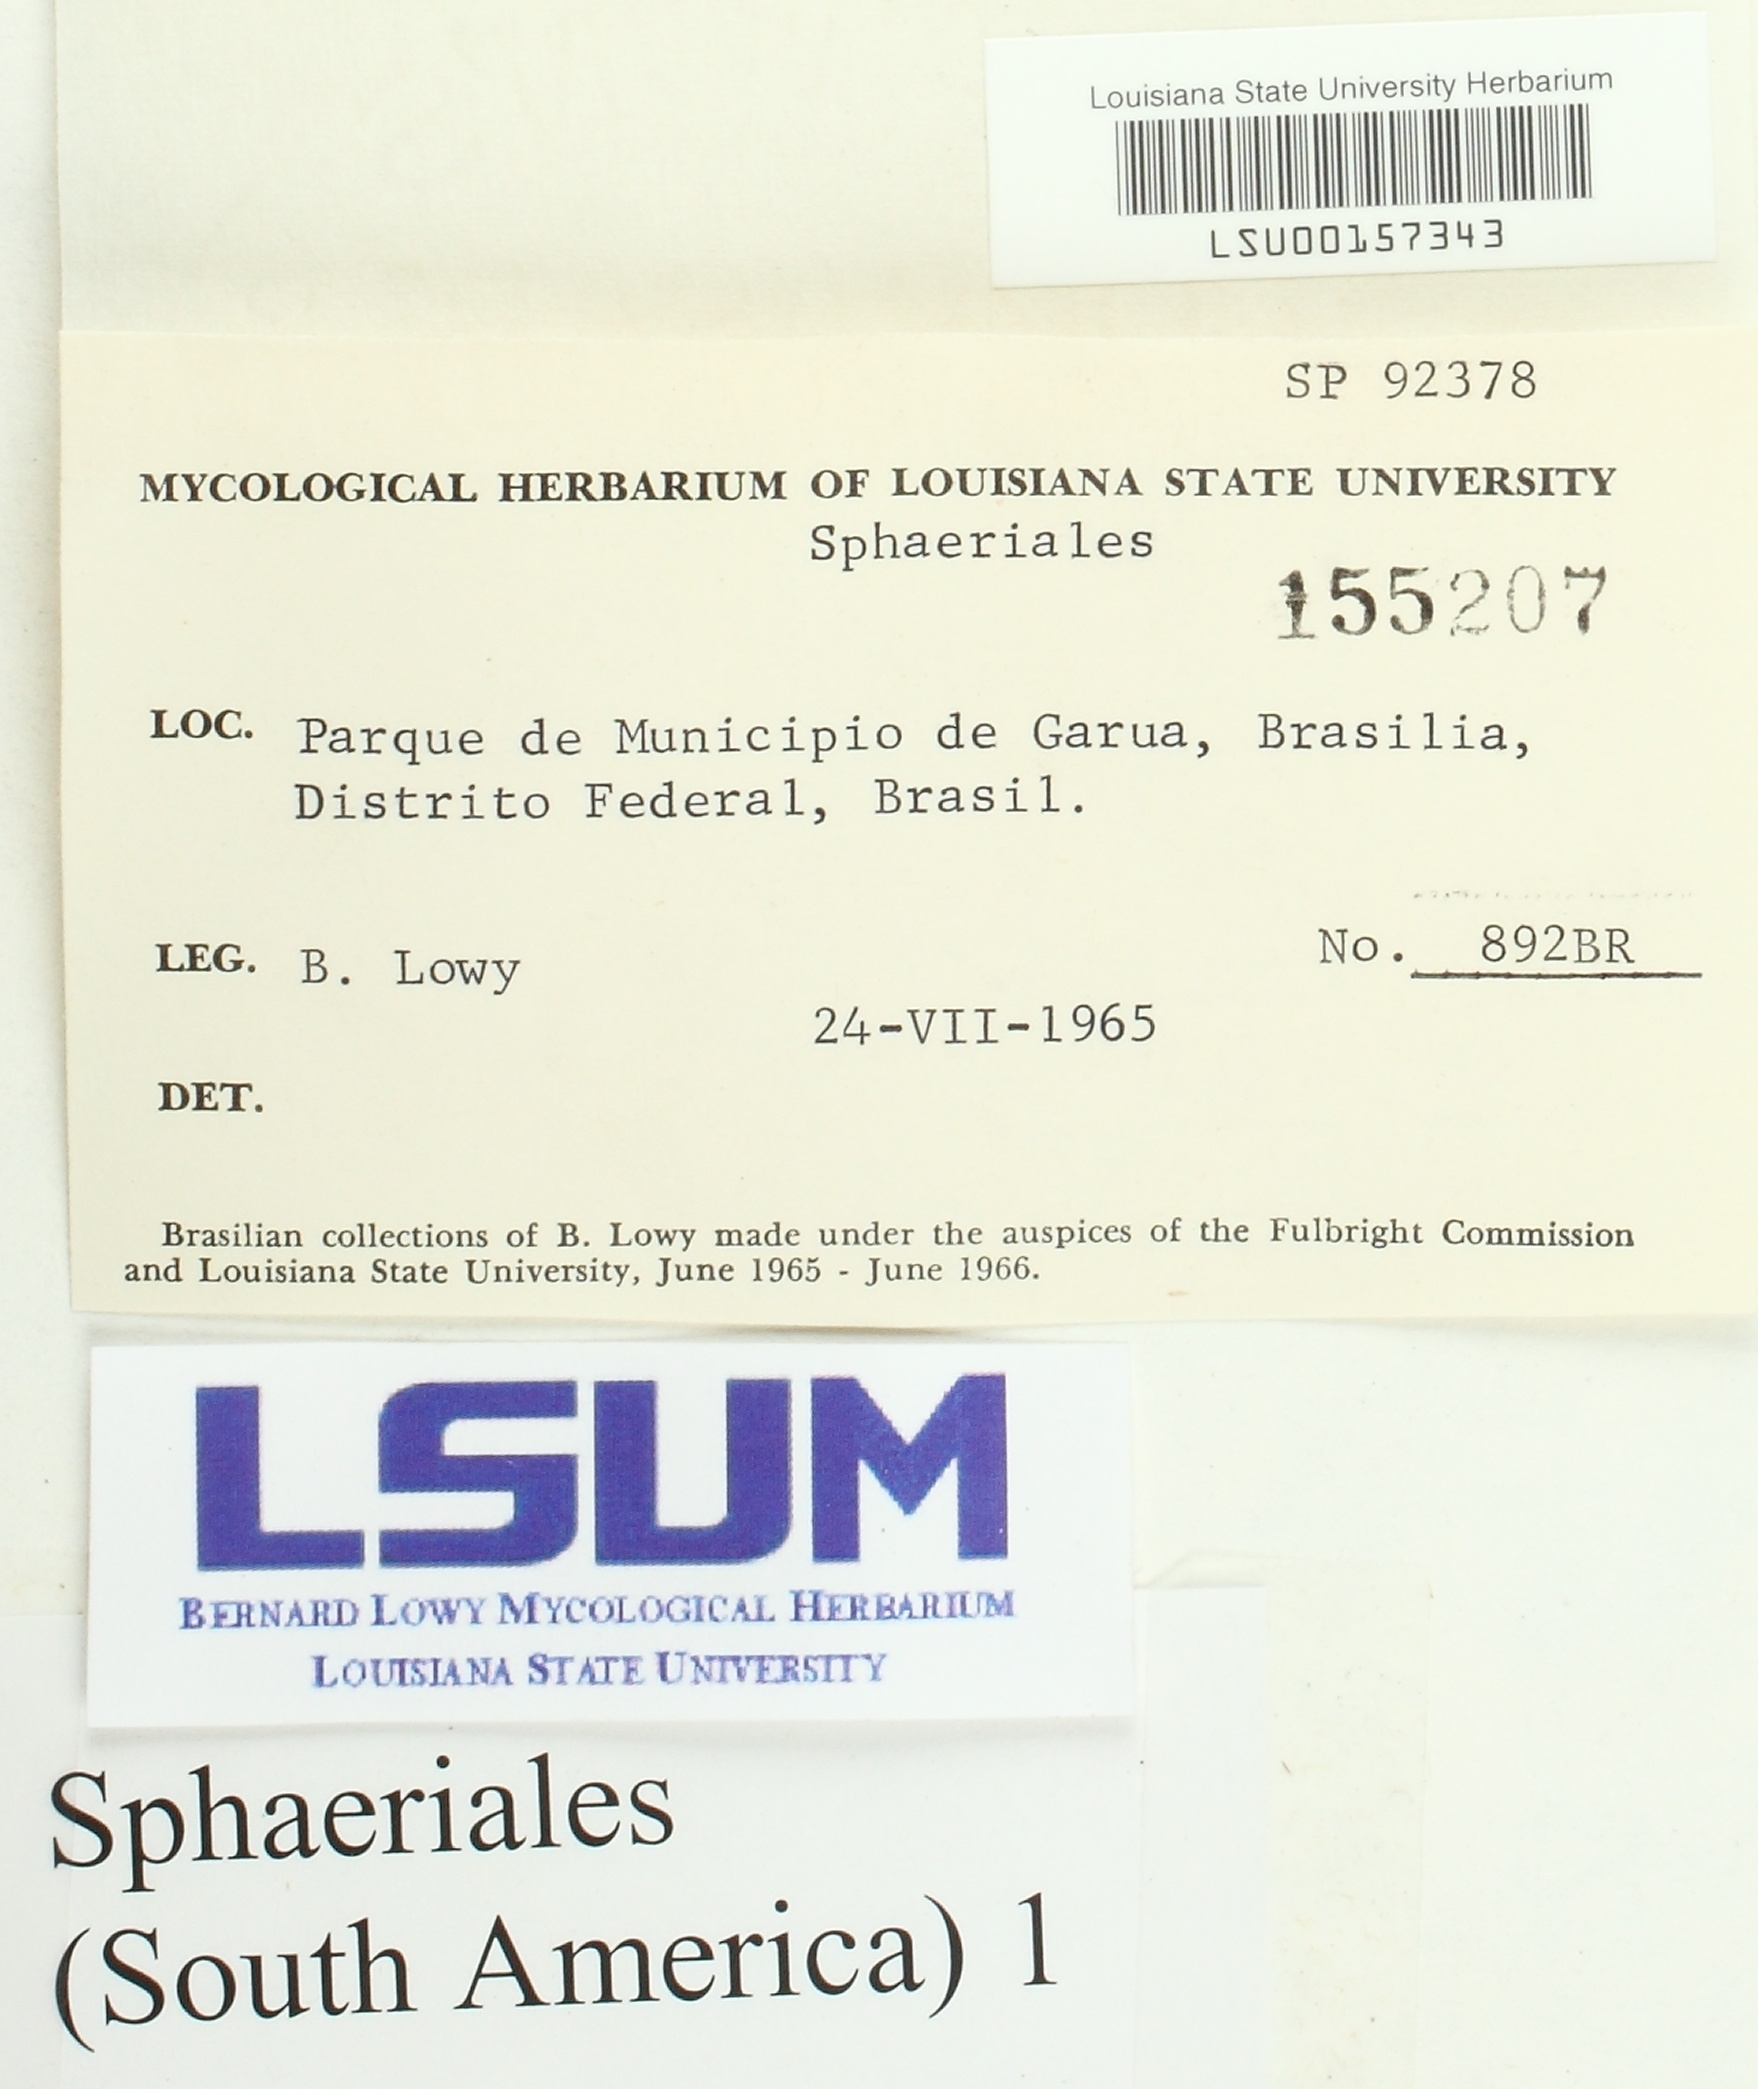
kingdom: Fungi
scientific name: Fungi
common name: Fungi
